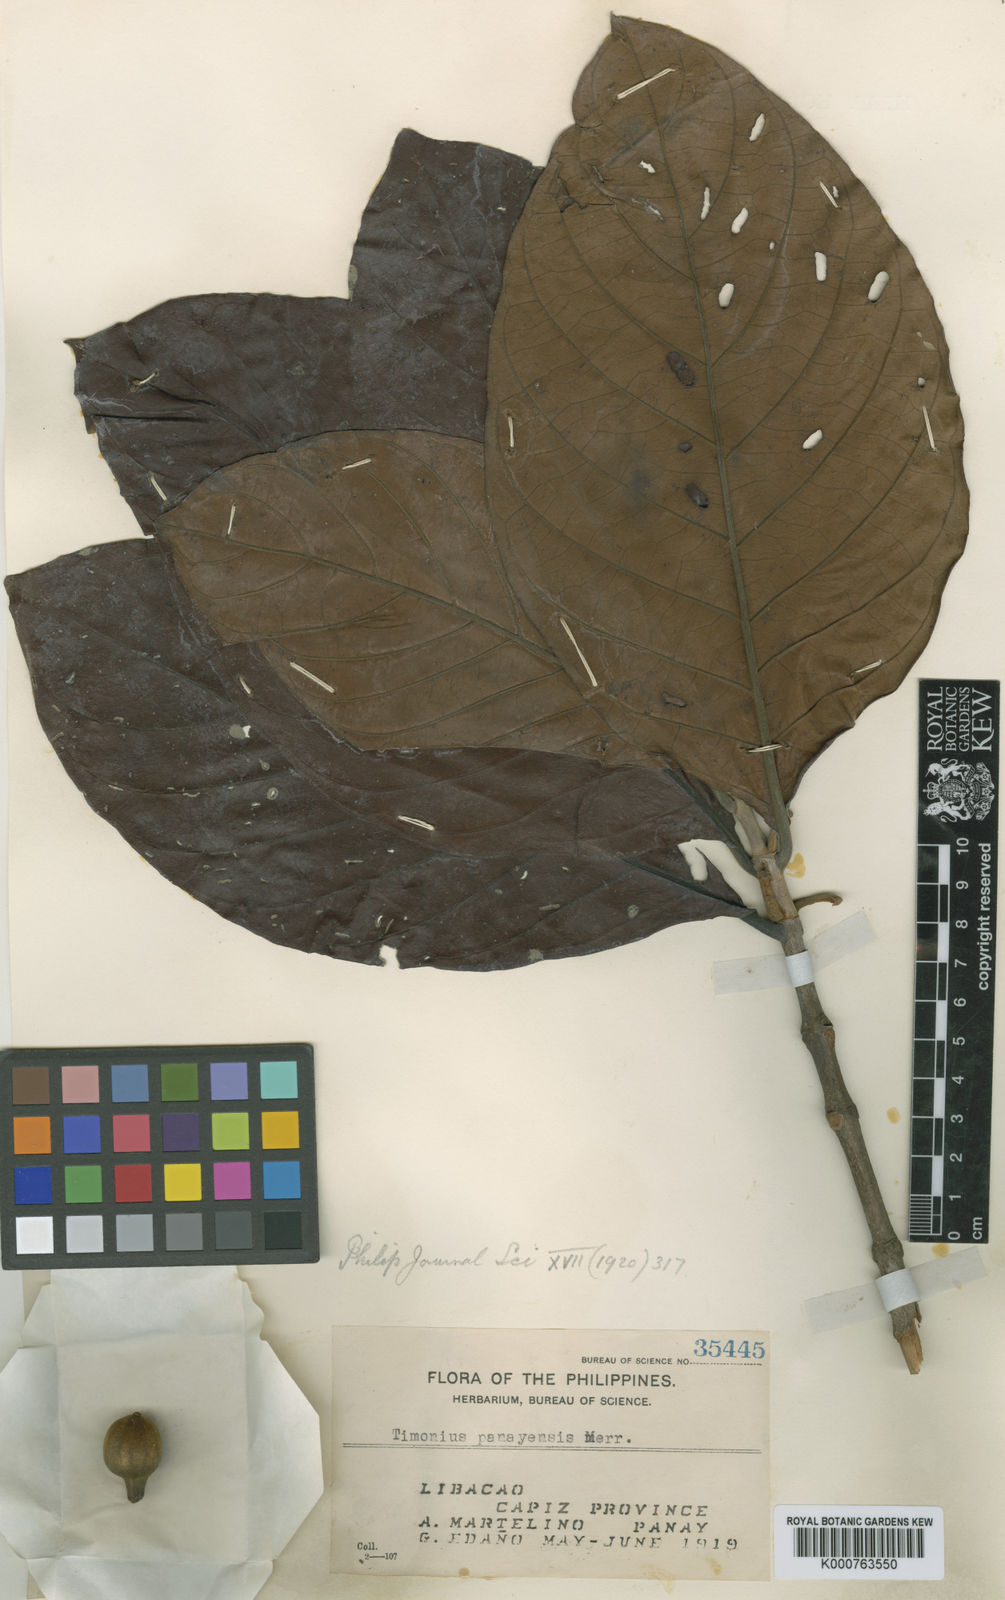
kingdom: Plantae
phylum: Tracheophyta
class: Magnoliopsida
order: Gentianales
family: Rubiaceae
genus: Timonius
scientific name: Timonius panayensis
